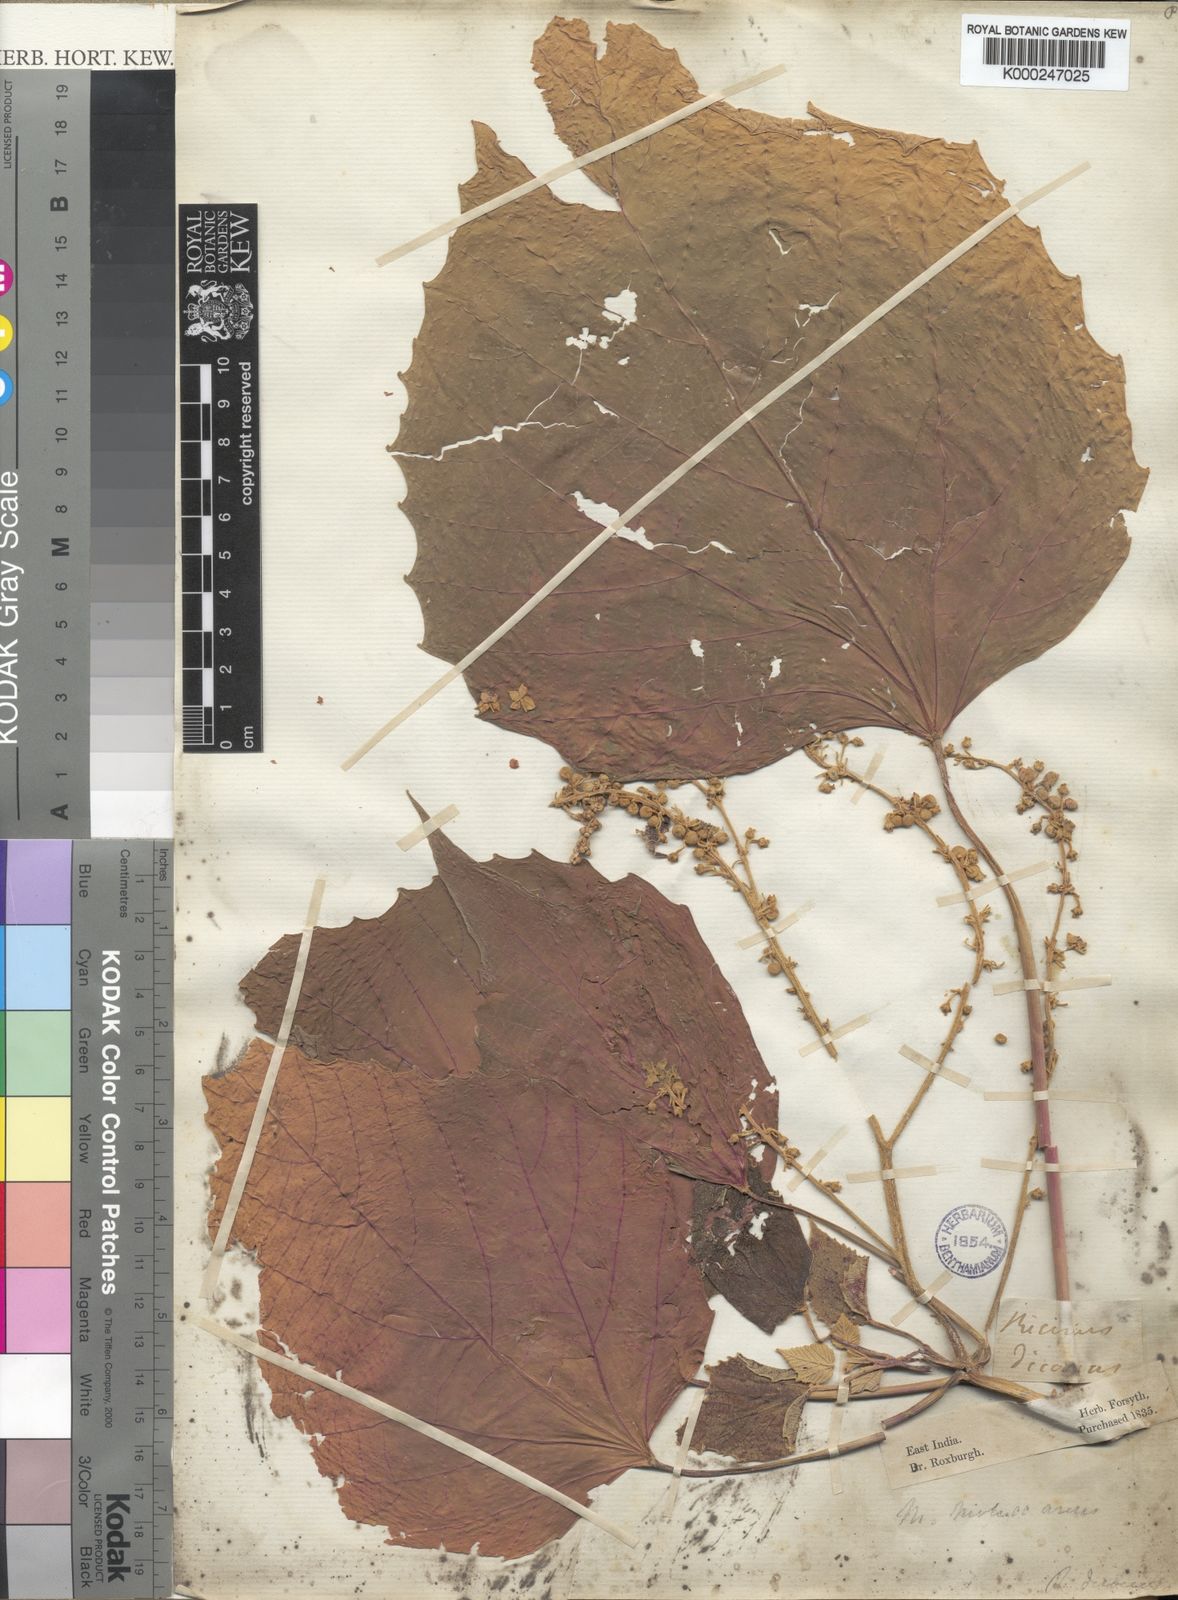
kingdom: Plantae
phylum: Tracheophyta
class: Magnoliopsida
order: Malpighiales
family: Euphorbiaceae
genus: Melanolepis
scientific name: Melanolepis multiglandulosa
